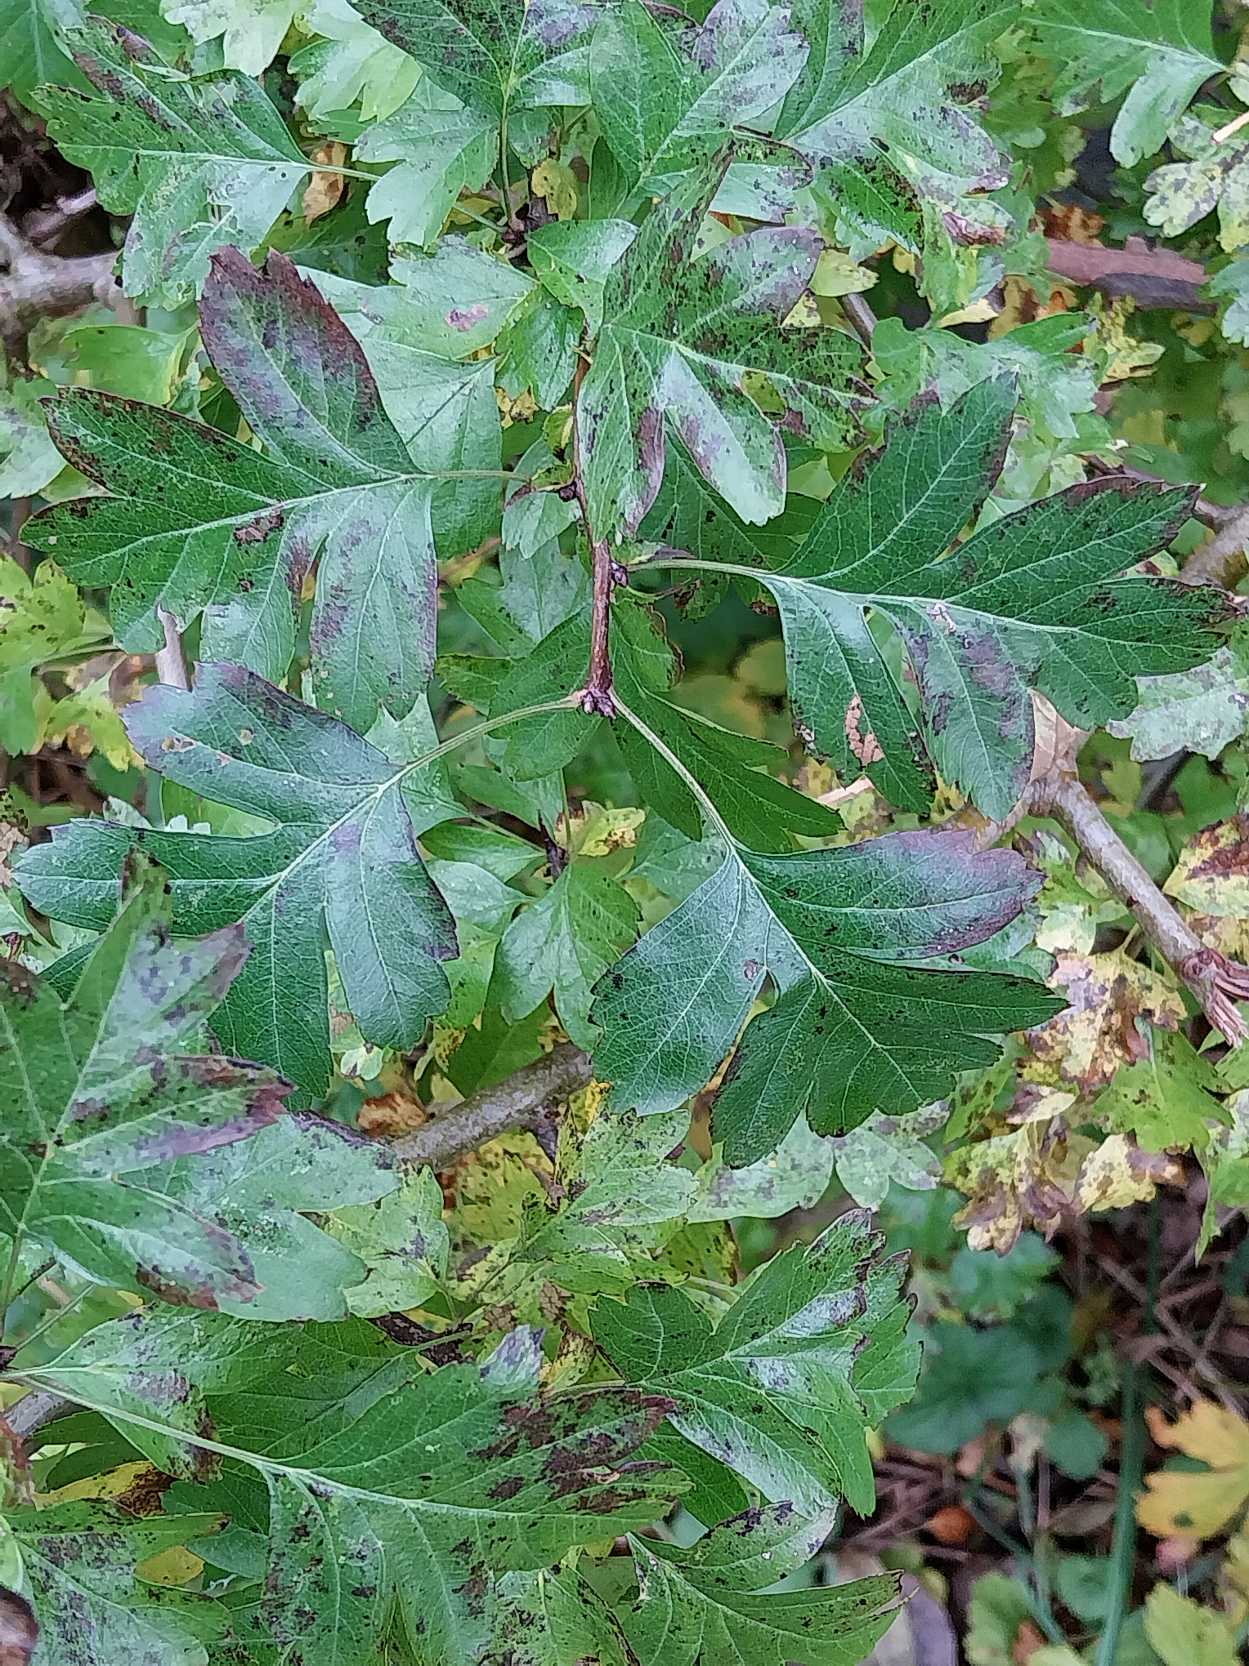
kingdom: Plantae
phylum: Tracheophyta
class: Magnoliopsida
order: Rosales
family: Rosaceae
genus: Crataegus
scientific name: Crataegus monogyna
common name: Engriflet hvidtjørn
